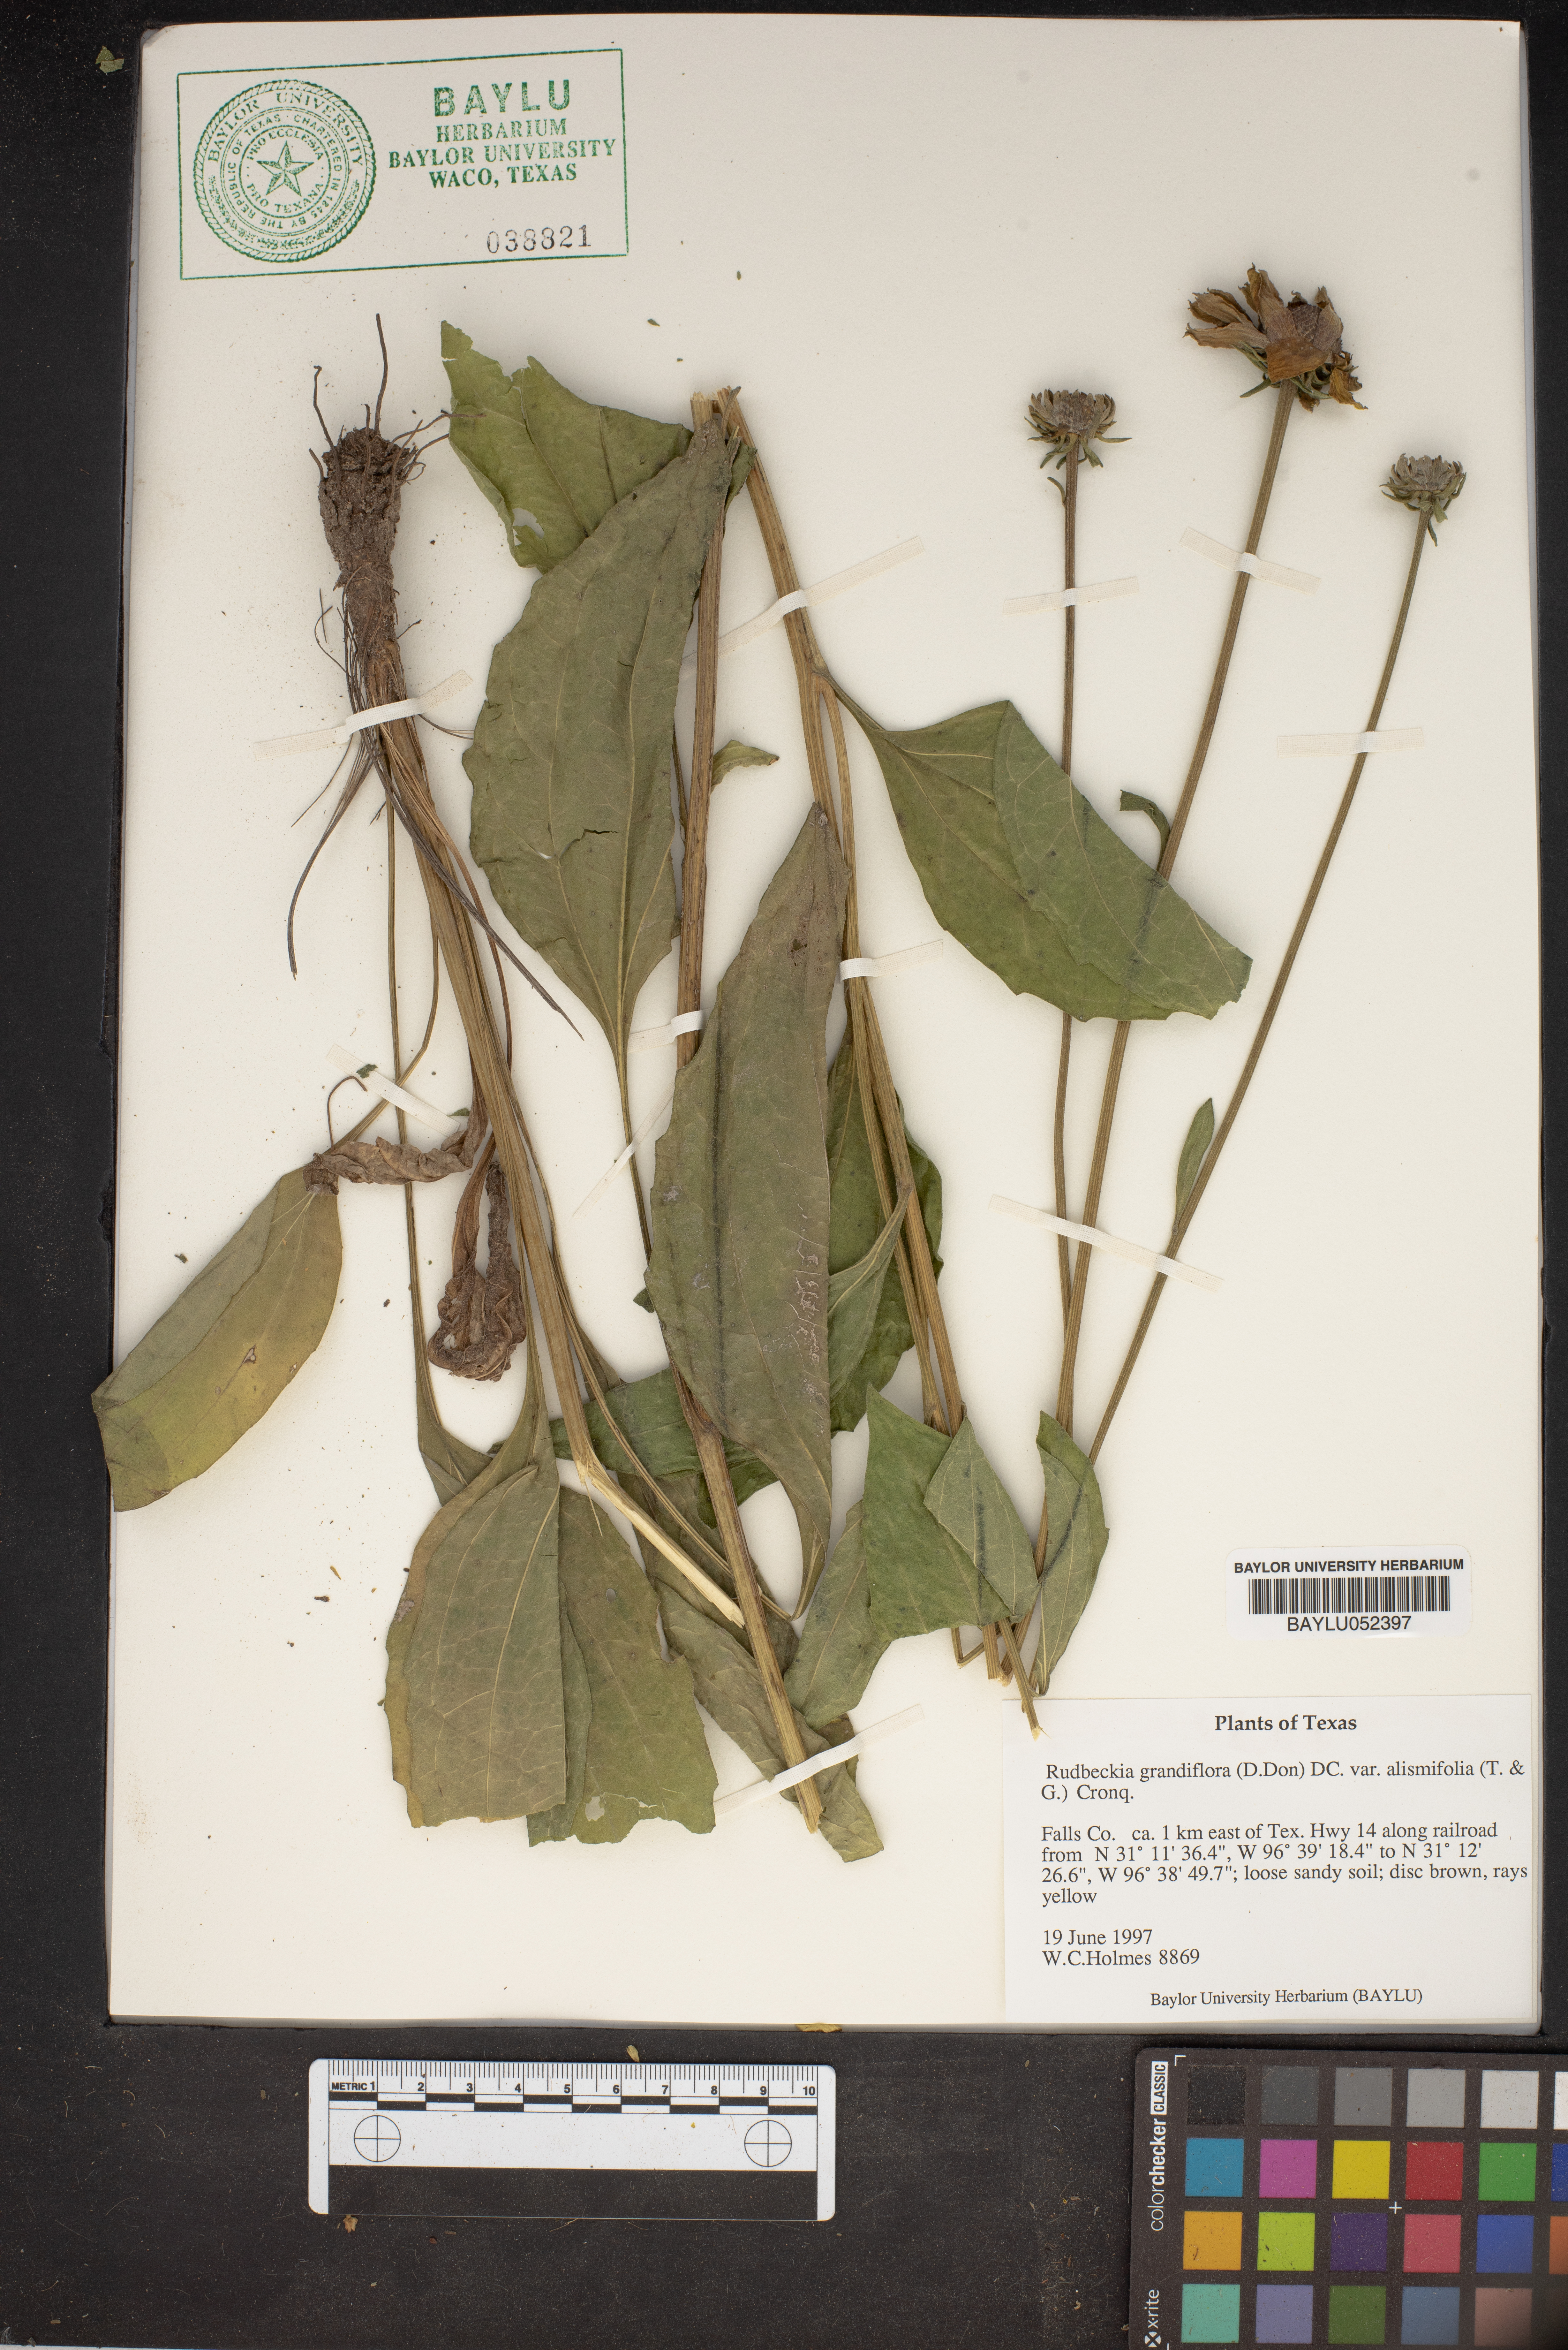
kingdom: Plantae
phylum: Tracheophyta
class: Magnoliopsida
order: Asterales
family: Asteraceae
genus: Rudbeckia
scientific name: Rudbeckia grandiflora
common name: Large-flowered coneflower
